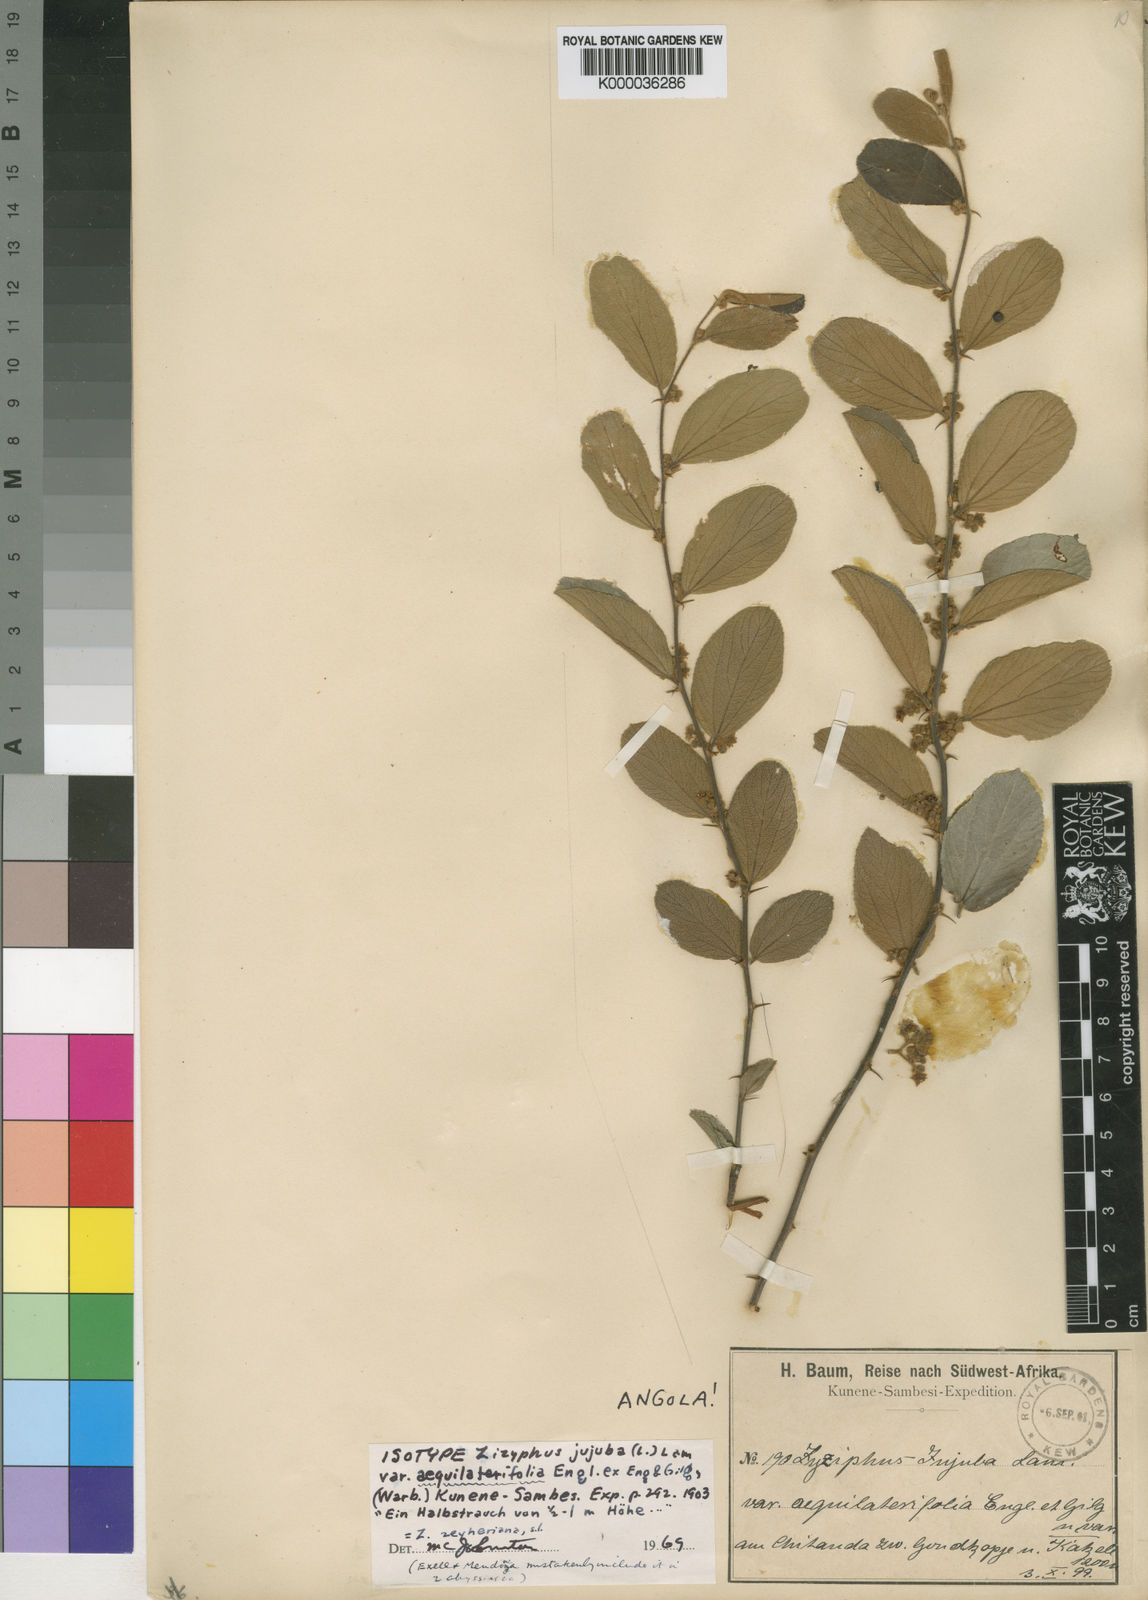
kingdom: Plantae
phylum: Tracheophyta
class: Magnoliopsida
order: Rosales
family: Rhamnaceae
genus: Ziziphus
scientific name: Ziziphus zeyheriana
